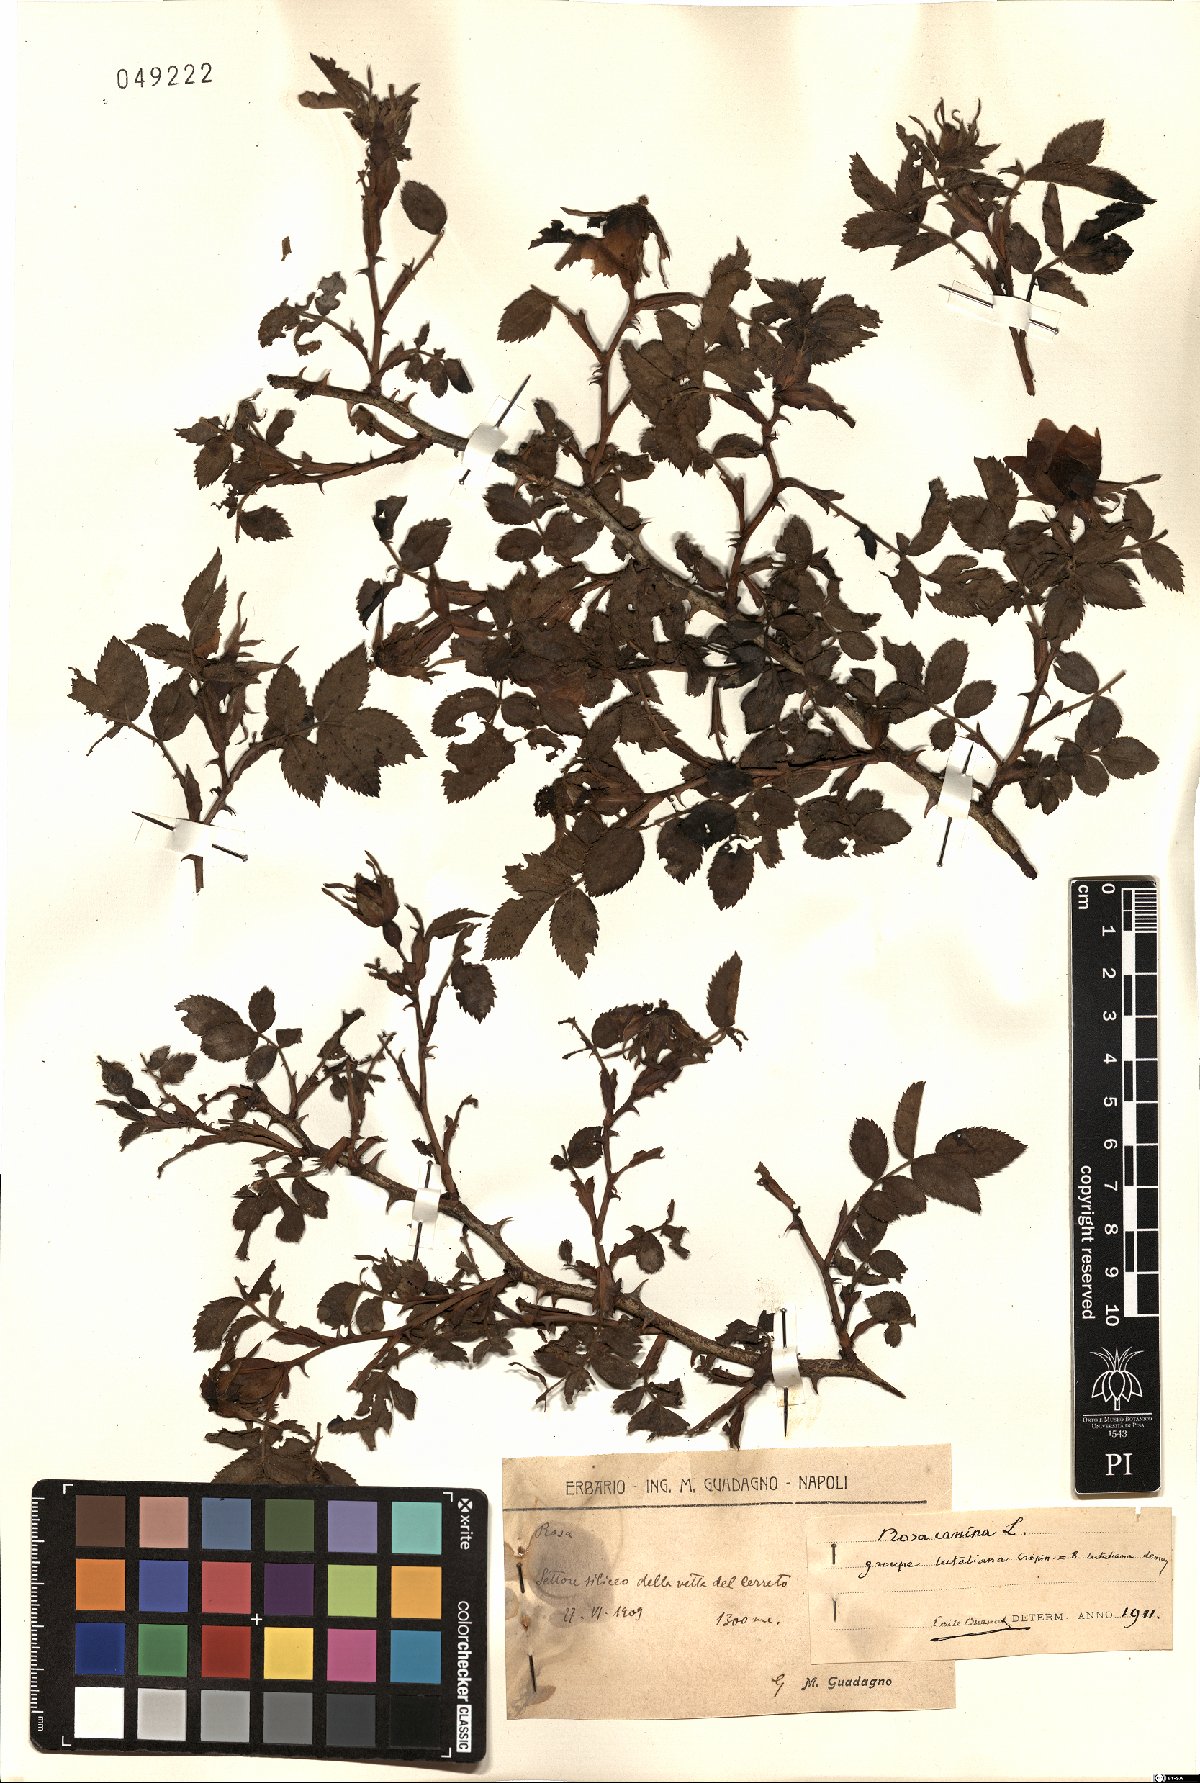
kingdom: Plantae
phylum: Tracheophyta
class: Magnoliopsida
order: Rosales
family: Rosaceae
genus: Rosa
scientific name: Rosa canina
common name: Dog rose
